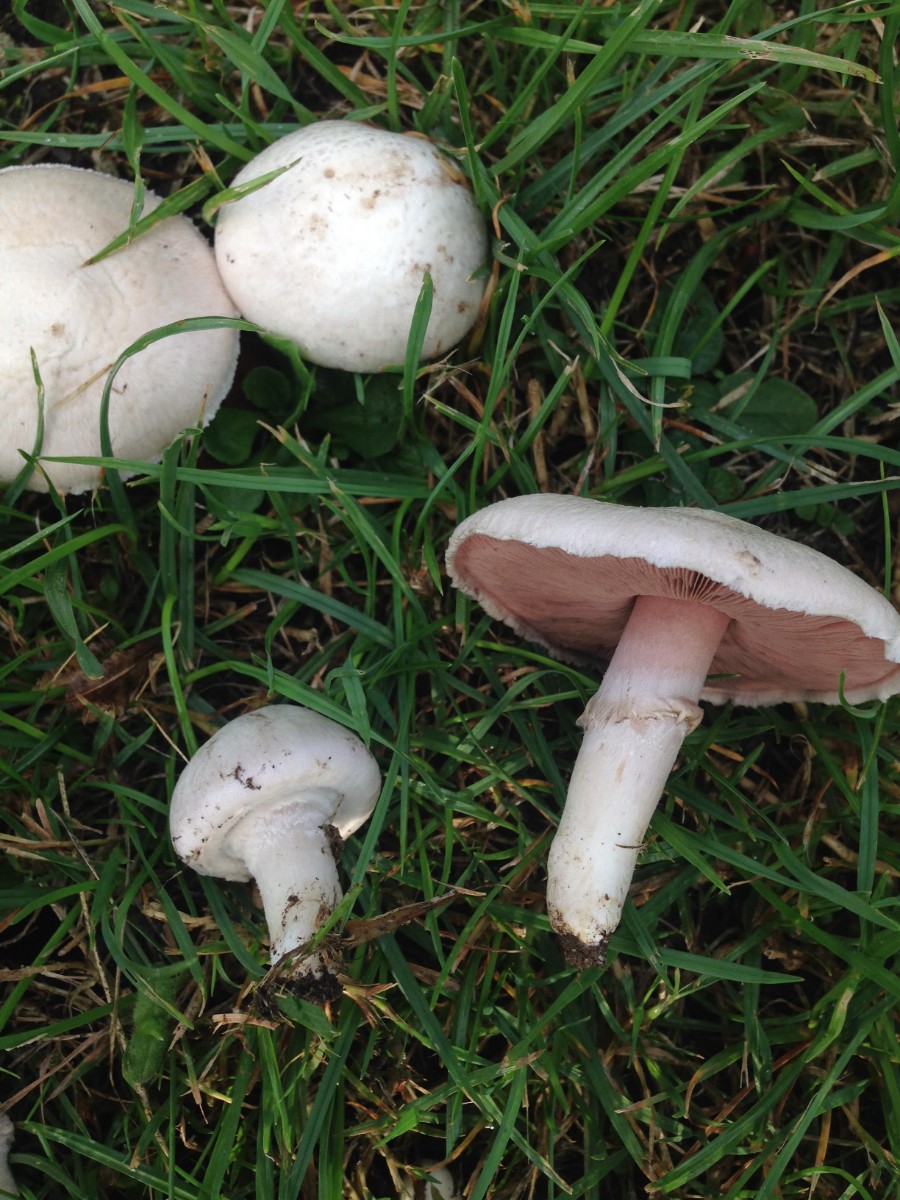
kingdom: Fungi
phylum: Basidiomycota
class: Agaricomycetes
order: Agaricales
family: Agaricaceae
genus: Agaricus
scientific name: Agaricus campestris
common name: mark-champignon
